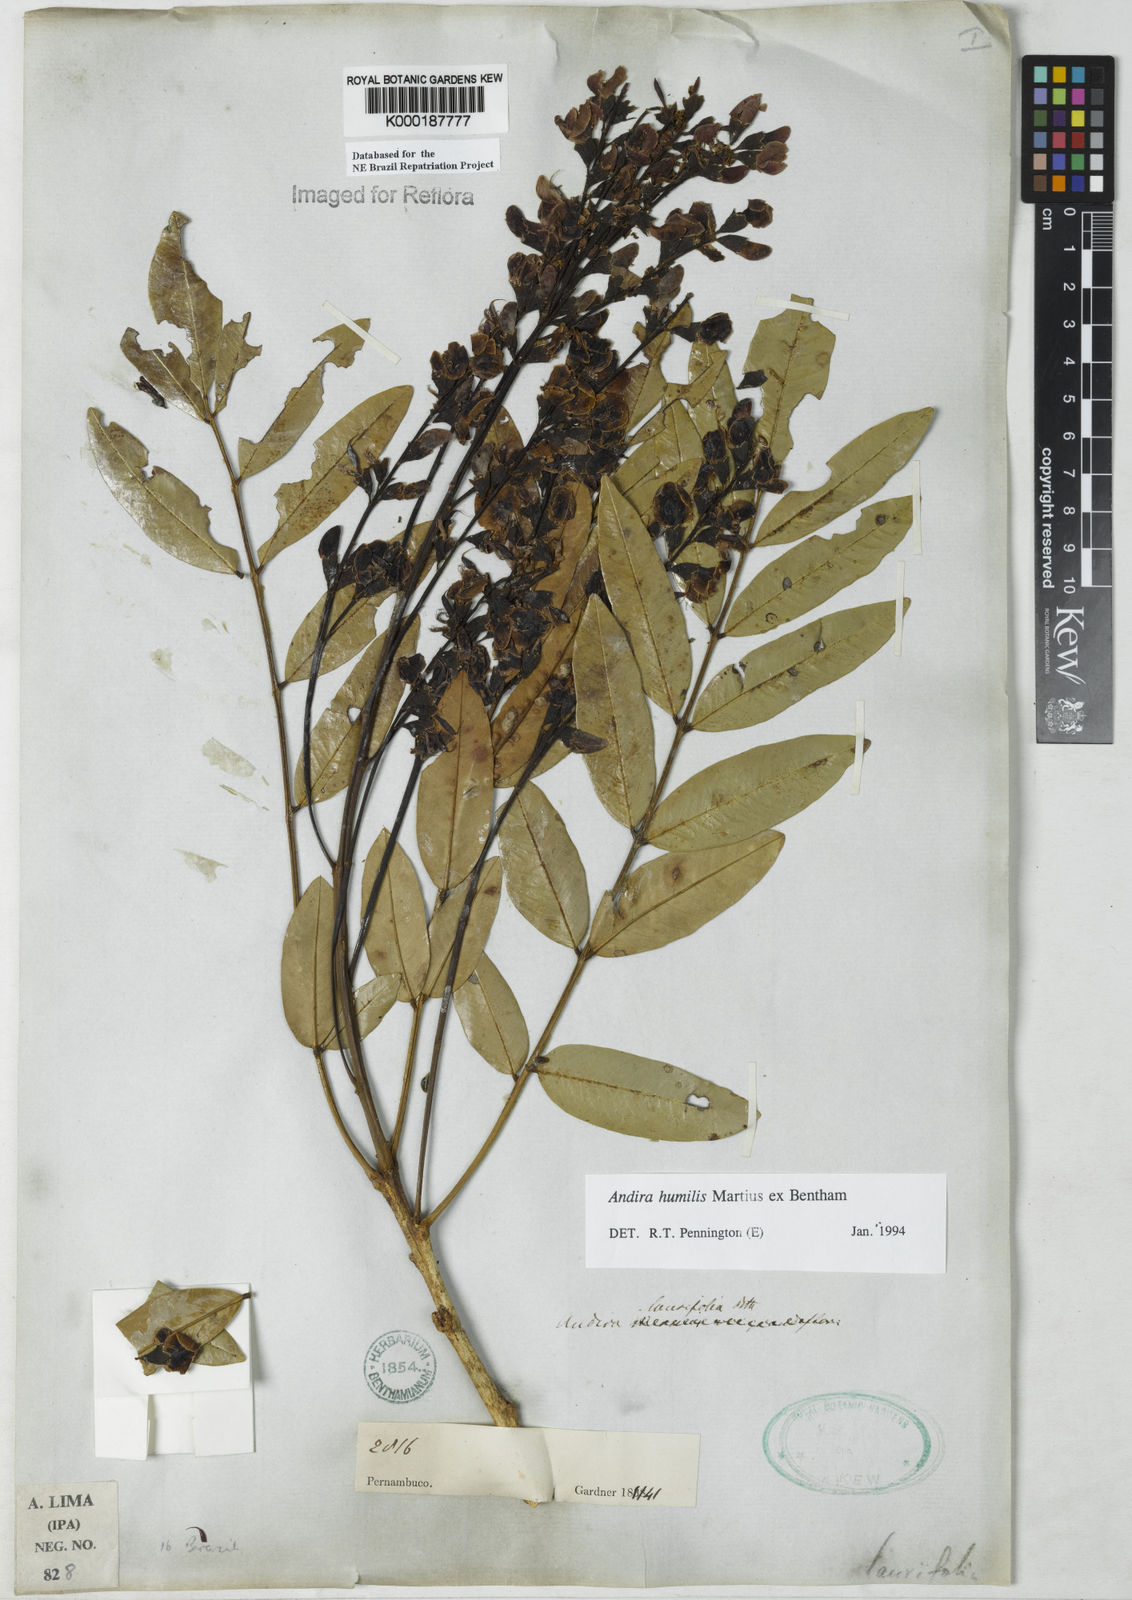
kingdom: Plantae
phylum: Tracheophyta
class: Magnoliopsida
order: Fabales
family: Fabaceae
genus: Andira
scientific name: Andira humilis
